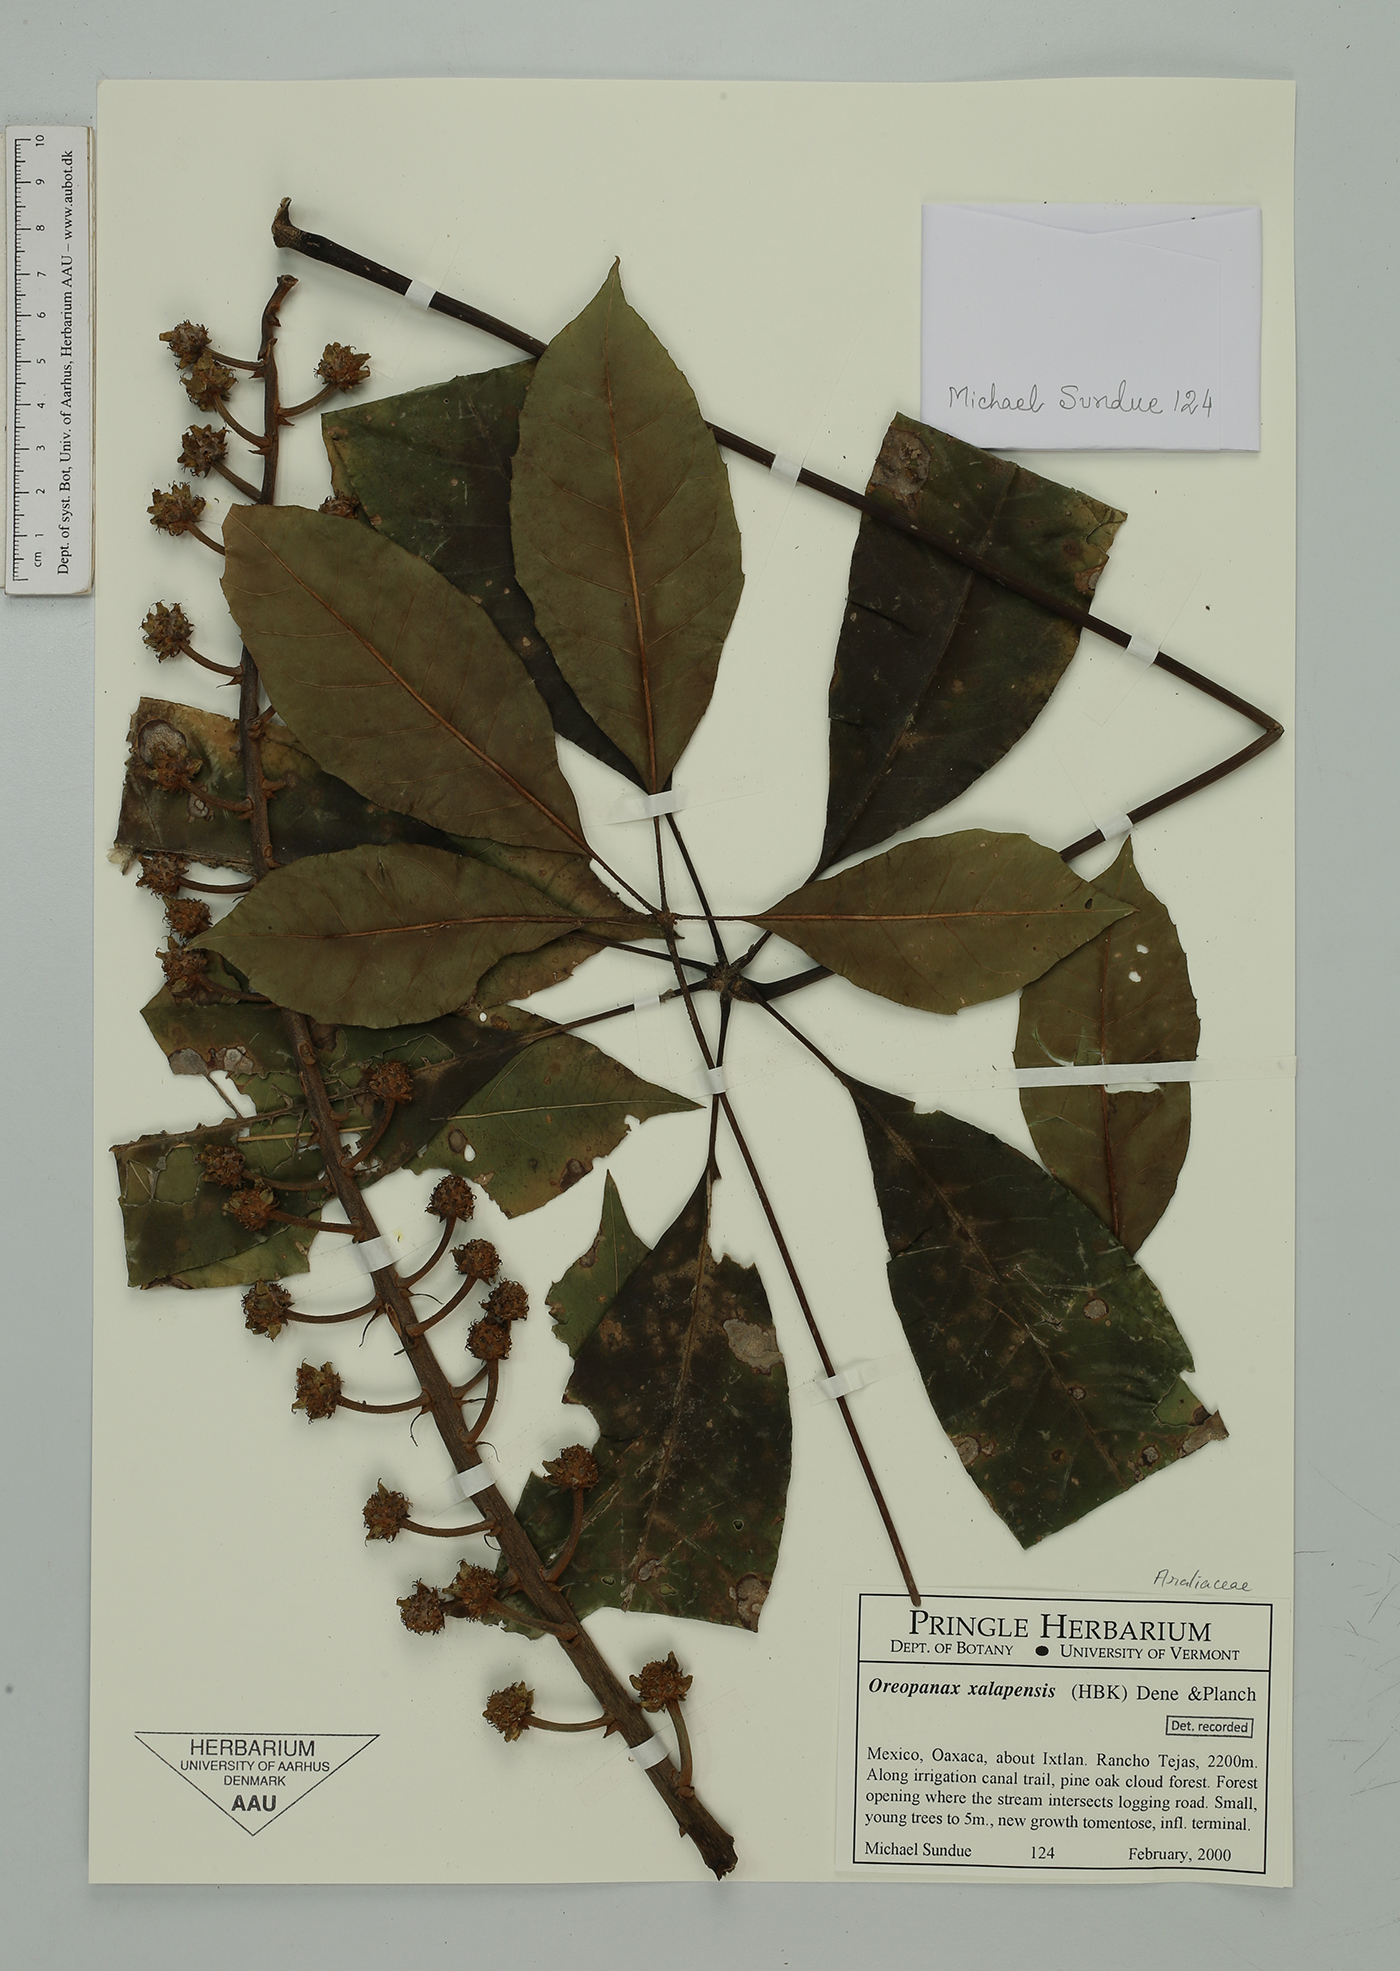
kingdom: Plantae
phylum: Tracheophyta
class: Magnoliopsida
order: Apiales
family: Araliaceae
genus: Oreopanax
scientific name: Oreopanax xalapensis
